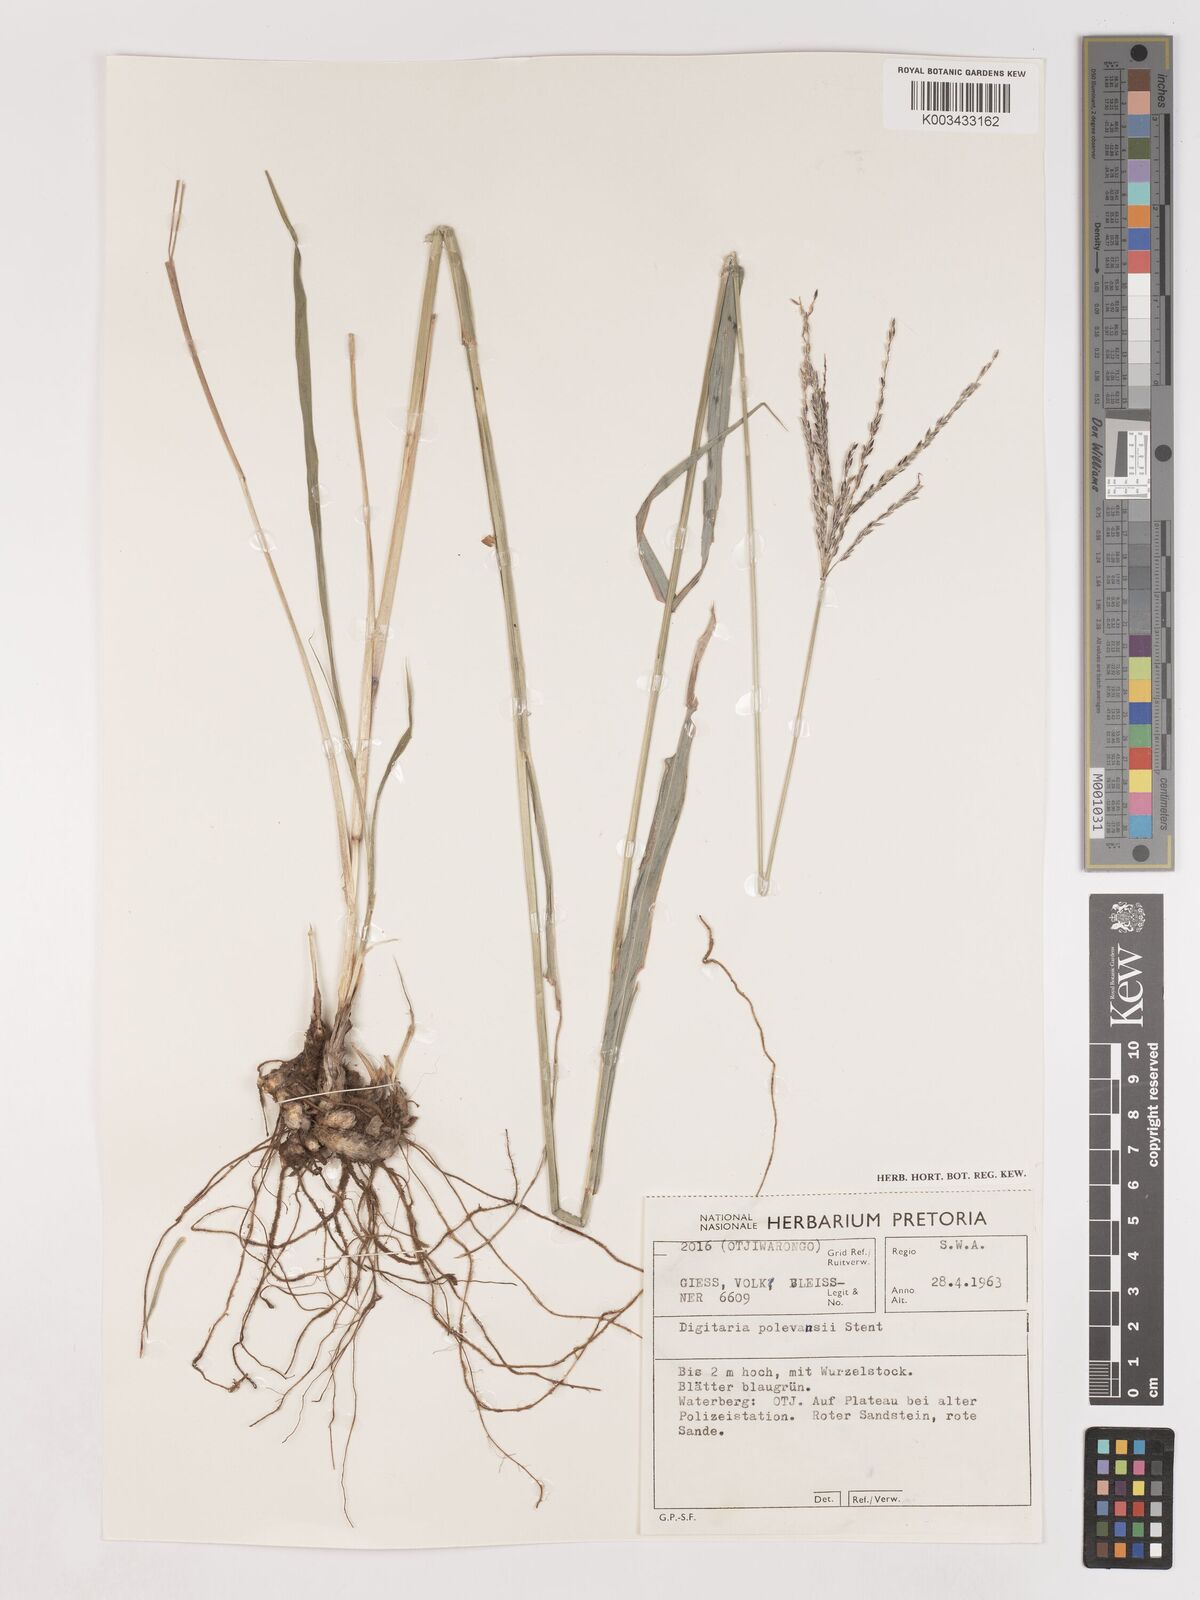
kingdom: Plantae
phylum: Tracheophyta
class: Liliopsida
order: Poales
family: Poaceae
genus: Digitaria
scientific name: Digitaria milanjiana
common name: Madagascar crabgrass
